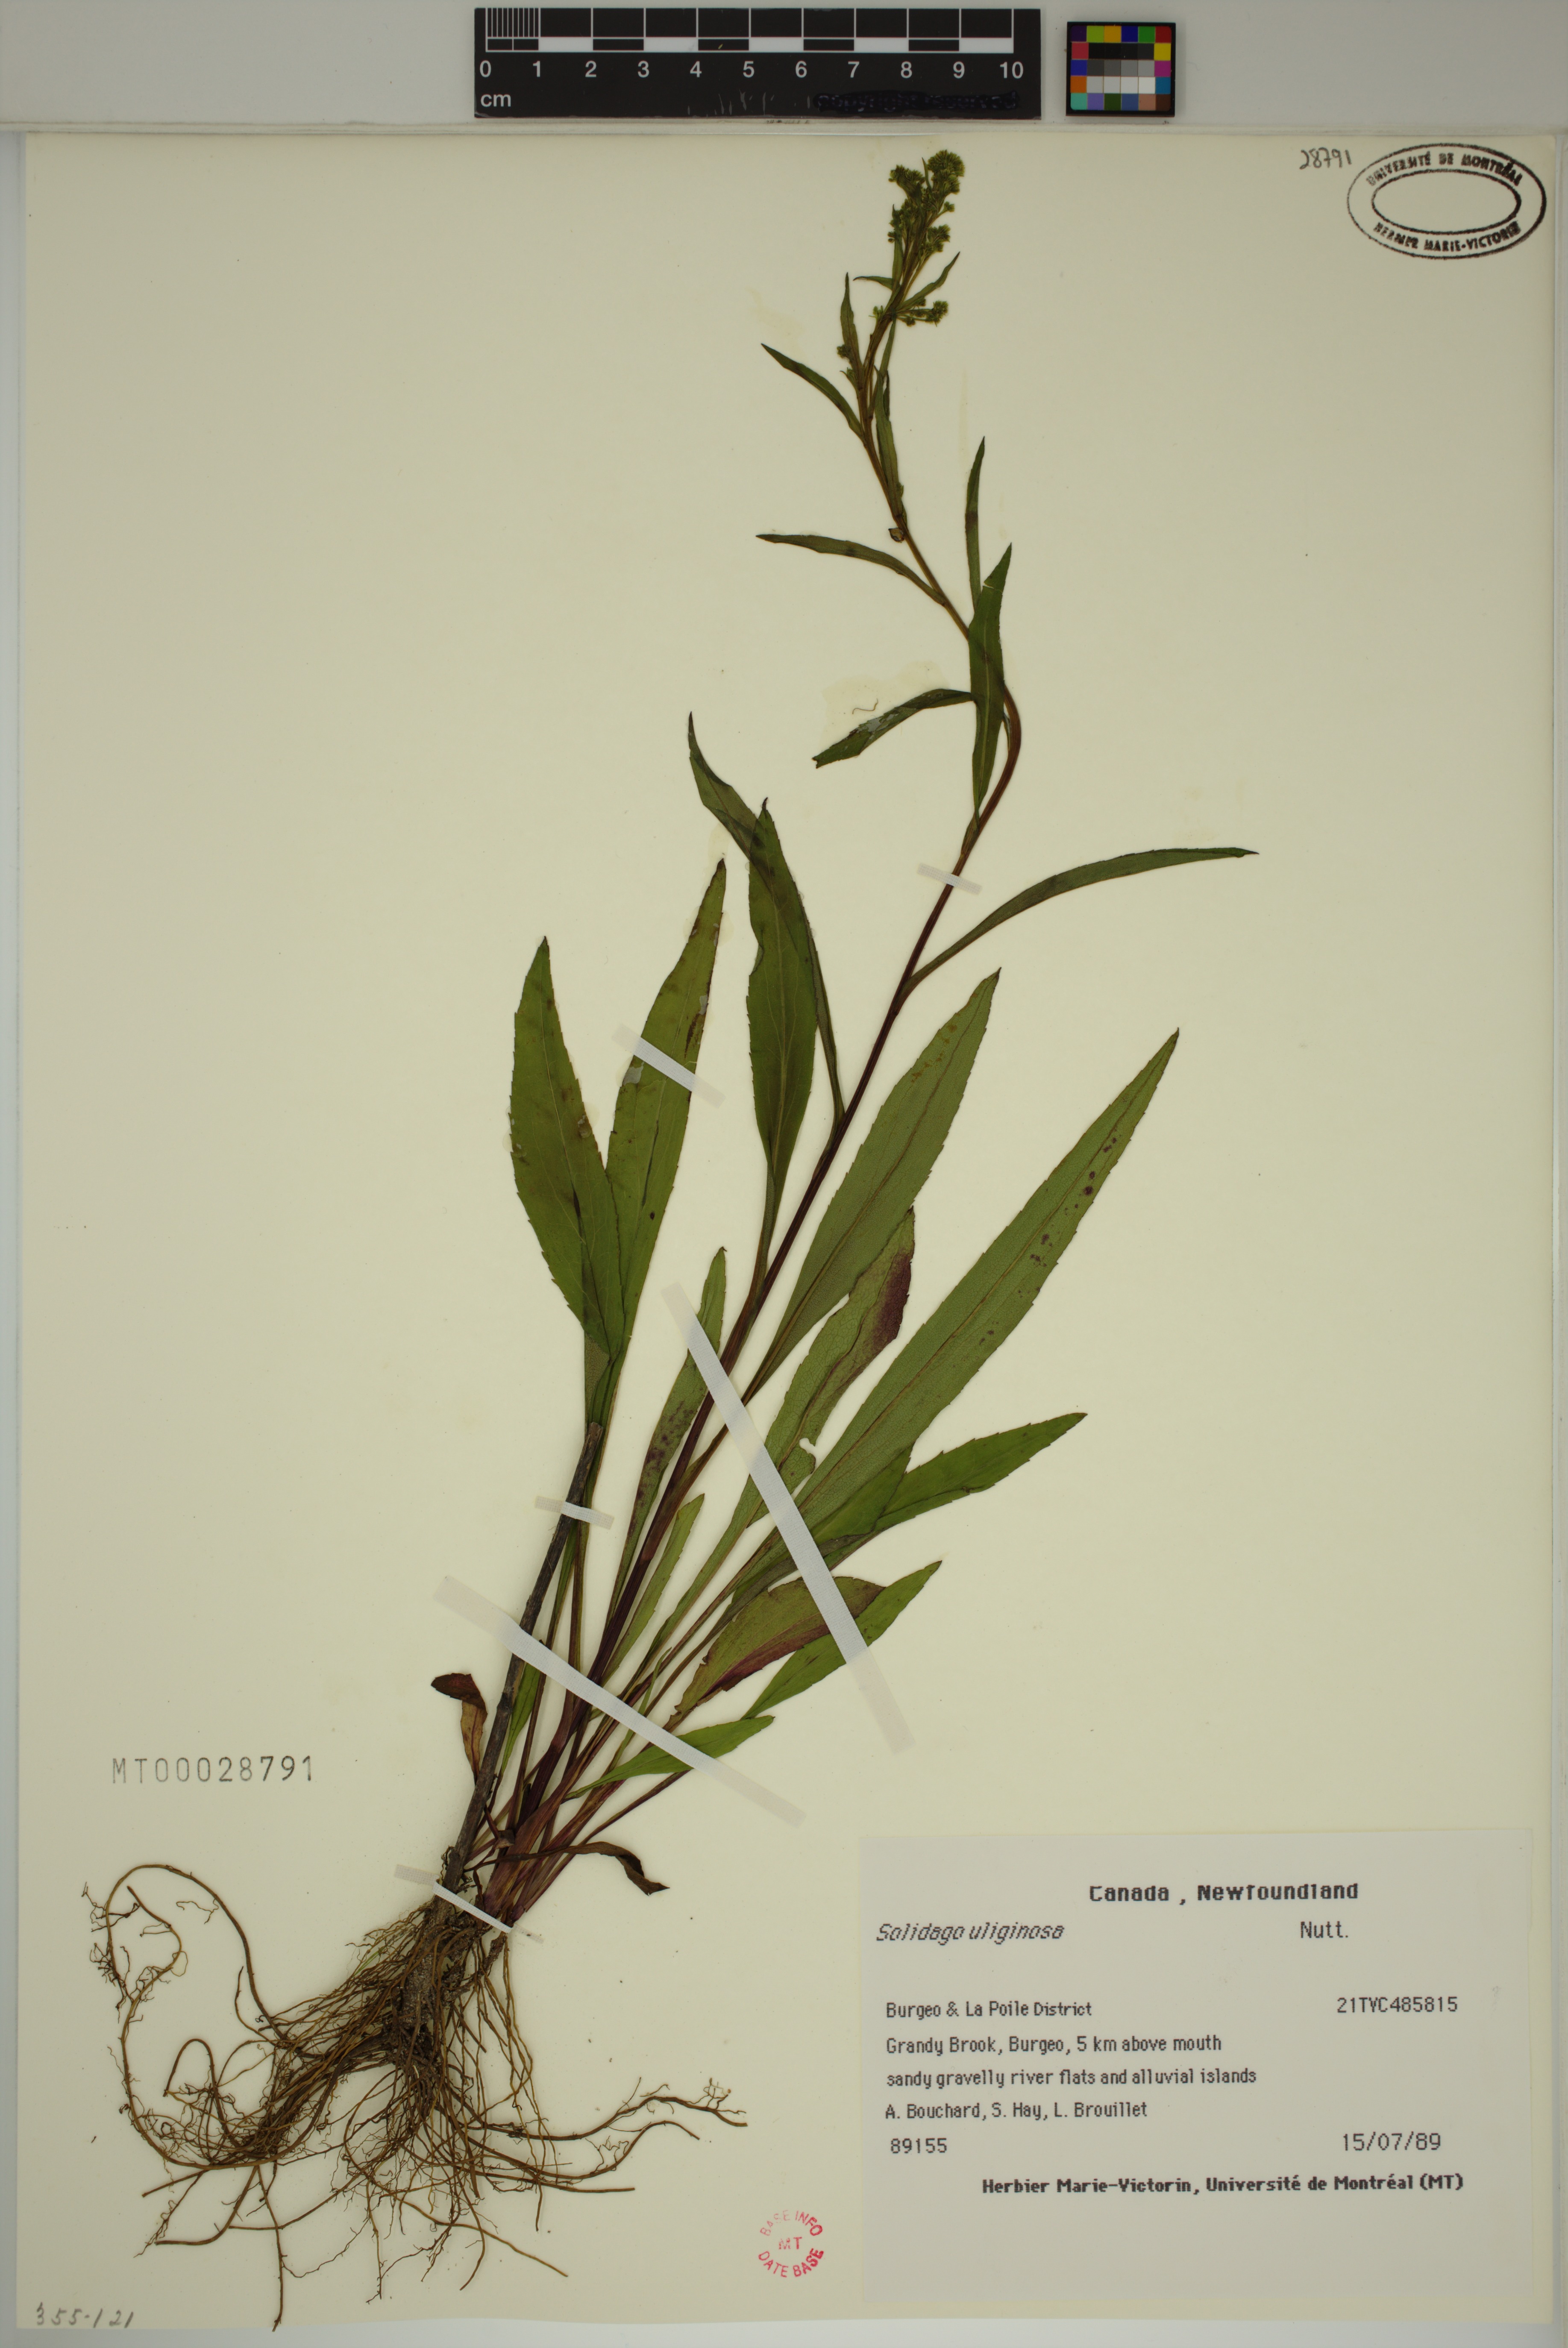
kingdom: Plantae
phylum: Tracheophyta
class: Magnoliopsida
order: Asterales
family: Asteraceae
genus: Solidago
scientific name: Solidago uliginosa
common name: Bog goldenrod
